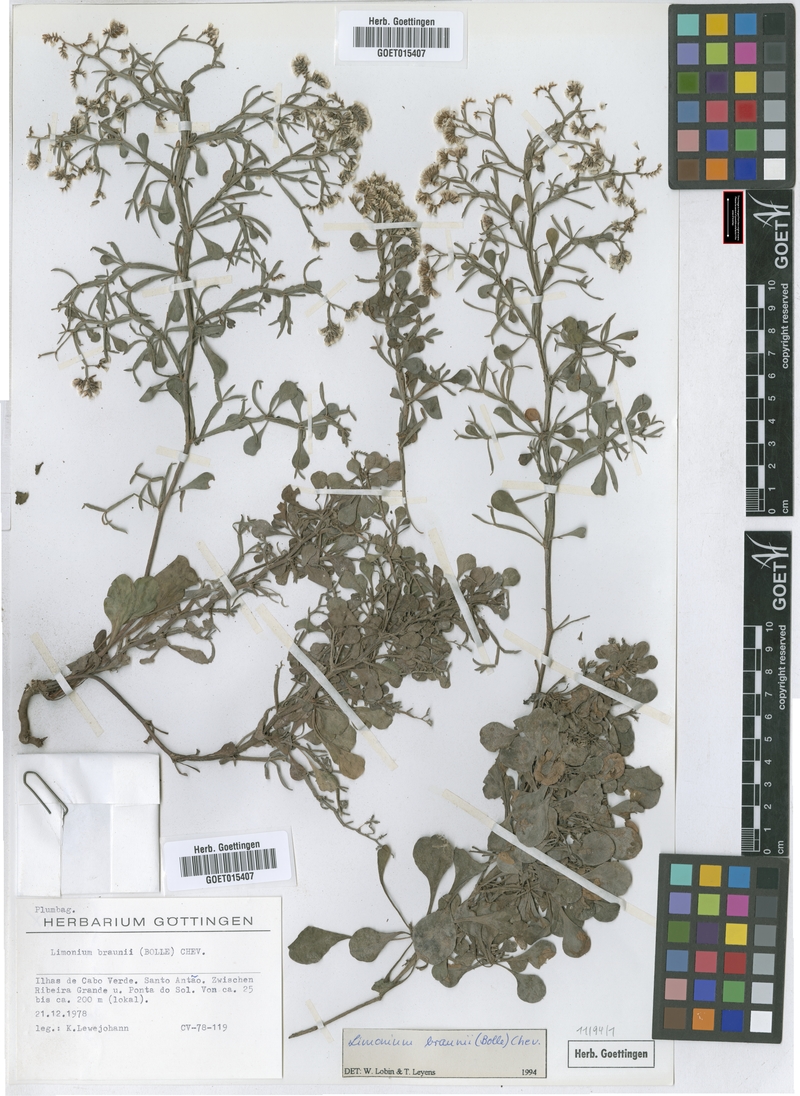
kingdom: Plantae
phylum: Tracheophyta
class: Magnoliopsida
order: Caryophyllales
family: Plumbaginaceae
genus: Limonium
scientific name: Limonium braunii
